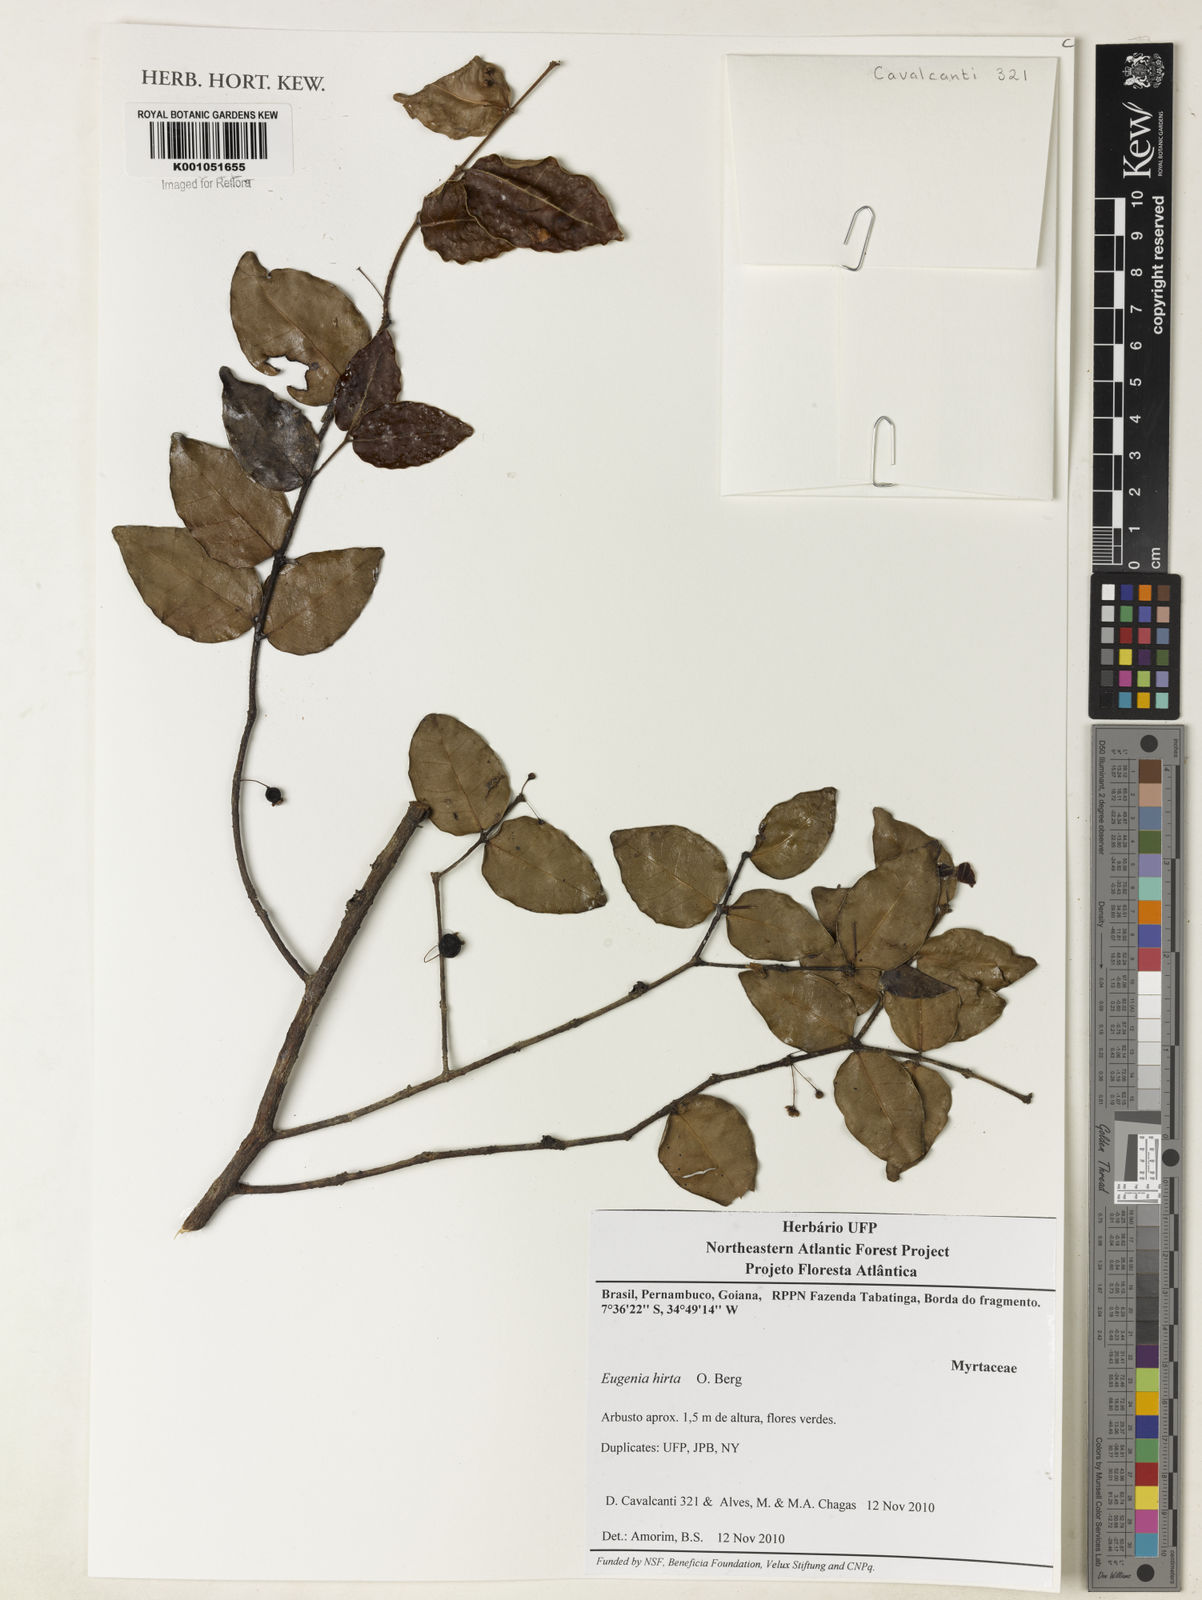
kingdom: Plantae
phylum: Tracheophyta
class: Magnoliopsida
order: Myrtales
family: Myrtaceae
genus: Eugenia
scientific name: Eugenia hirta
